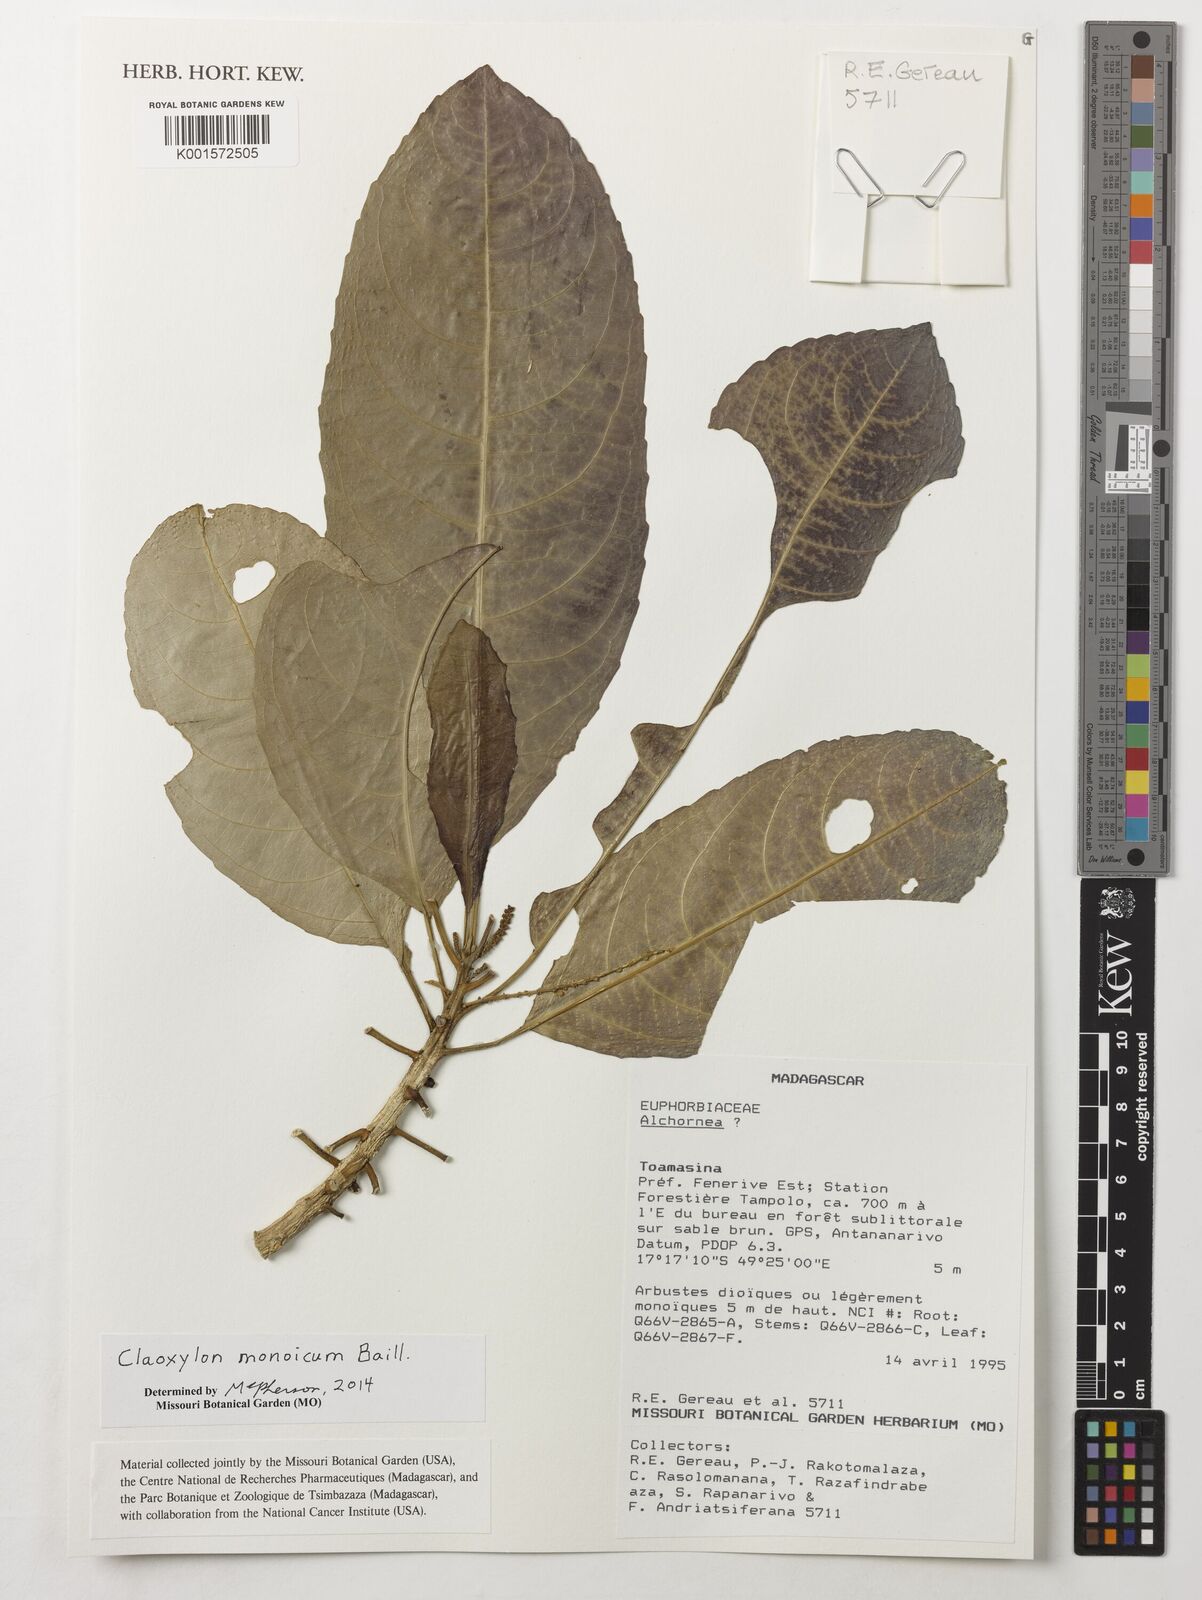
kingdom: Plantae
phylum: Tracheophyta
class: Magnoliopsida
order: Malpighiales
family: Euphorbiaceae
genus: Claoxylon
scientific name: Claoxylon monoicum
